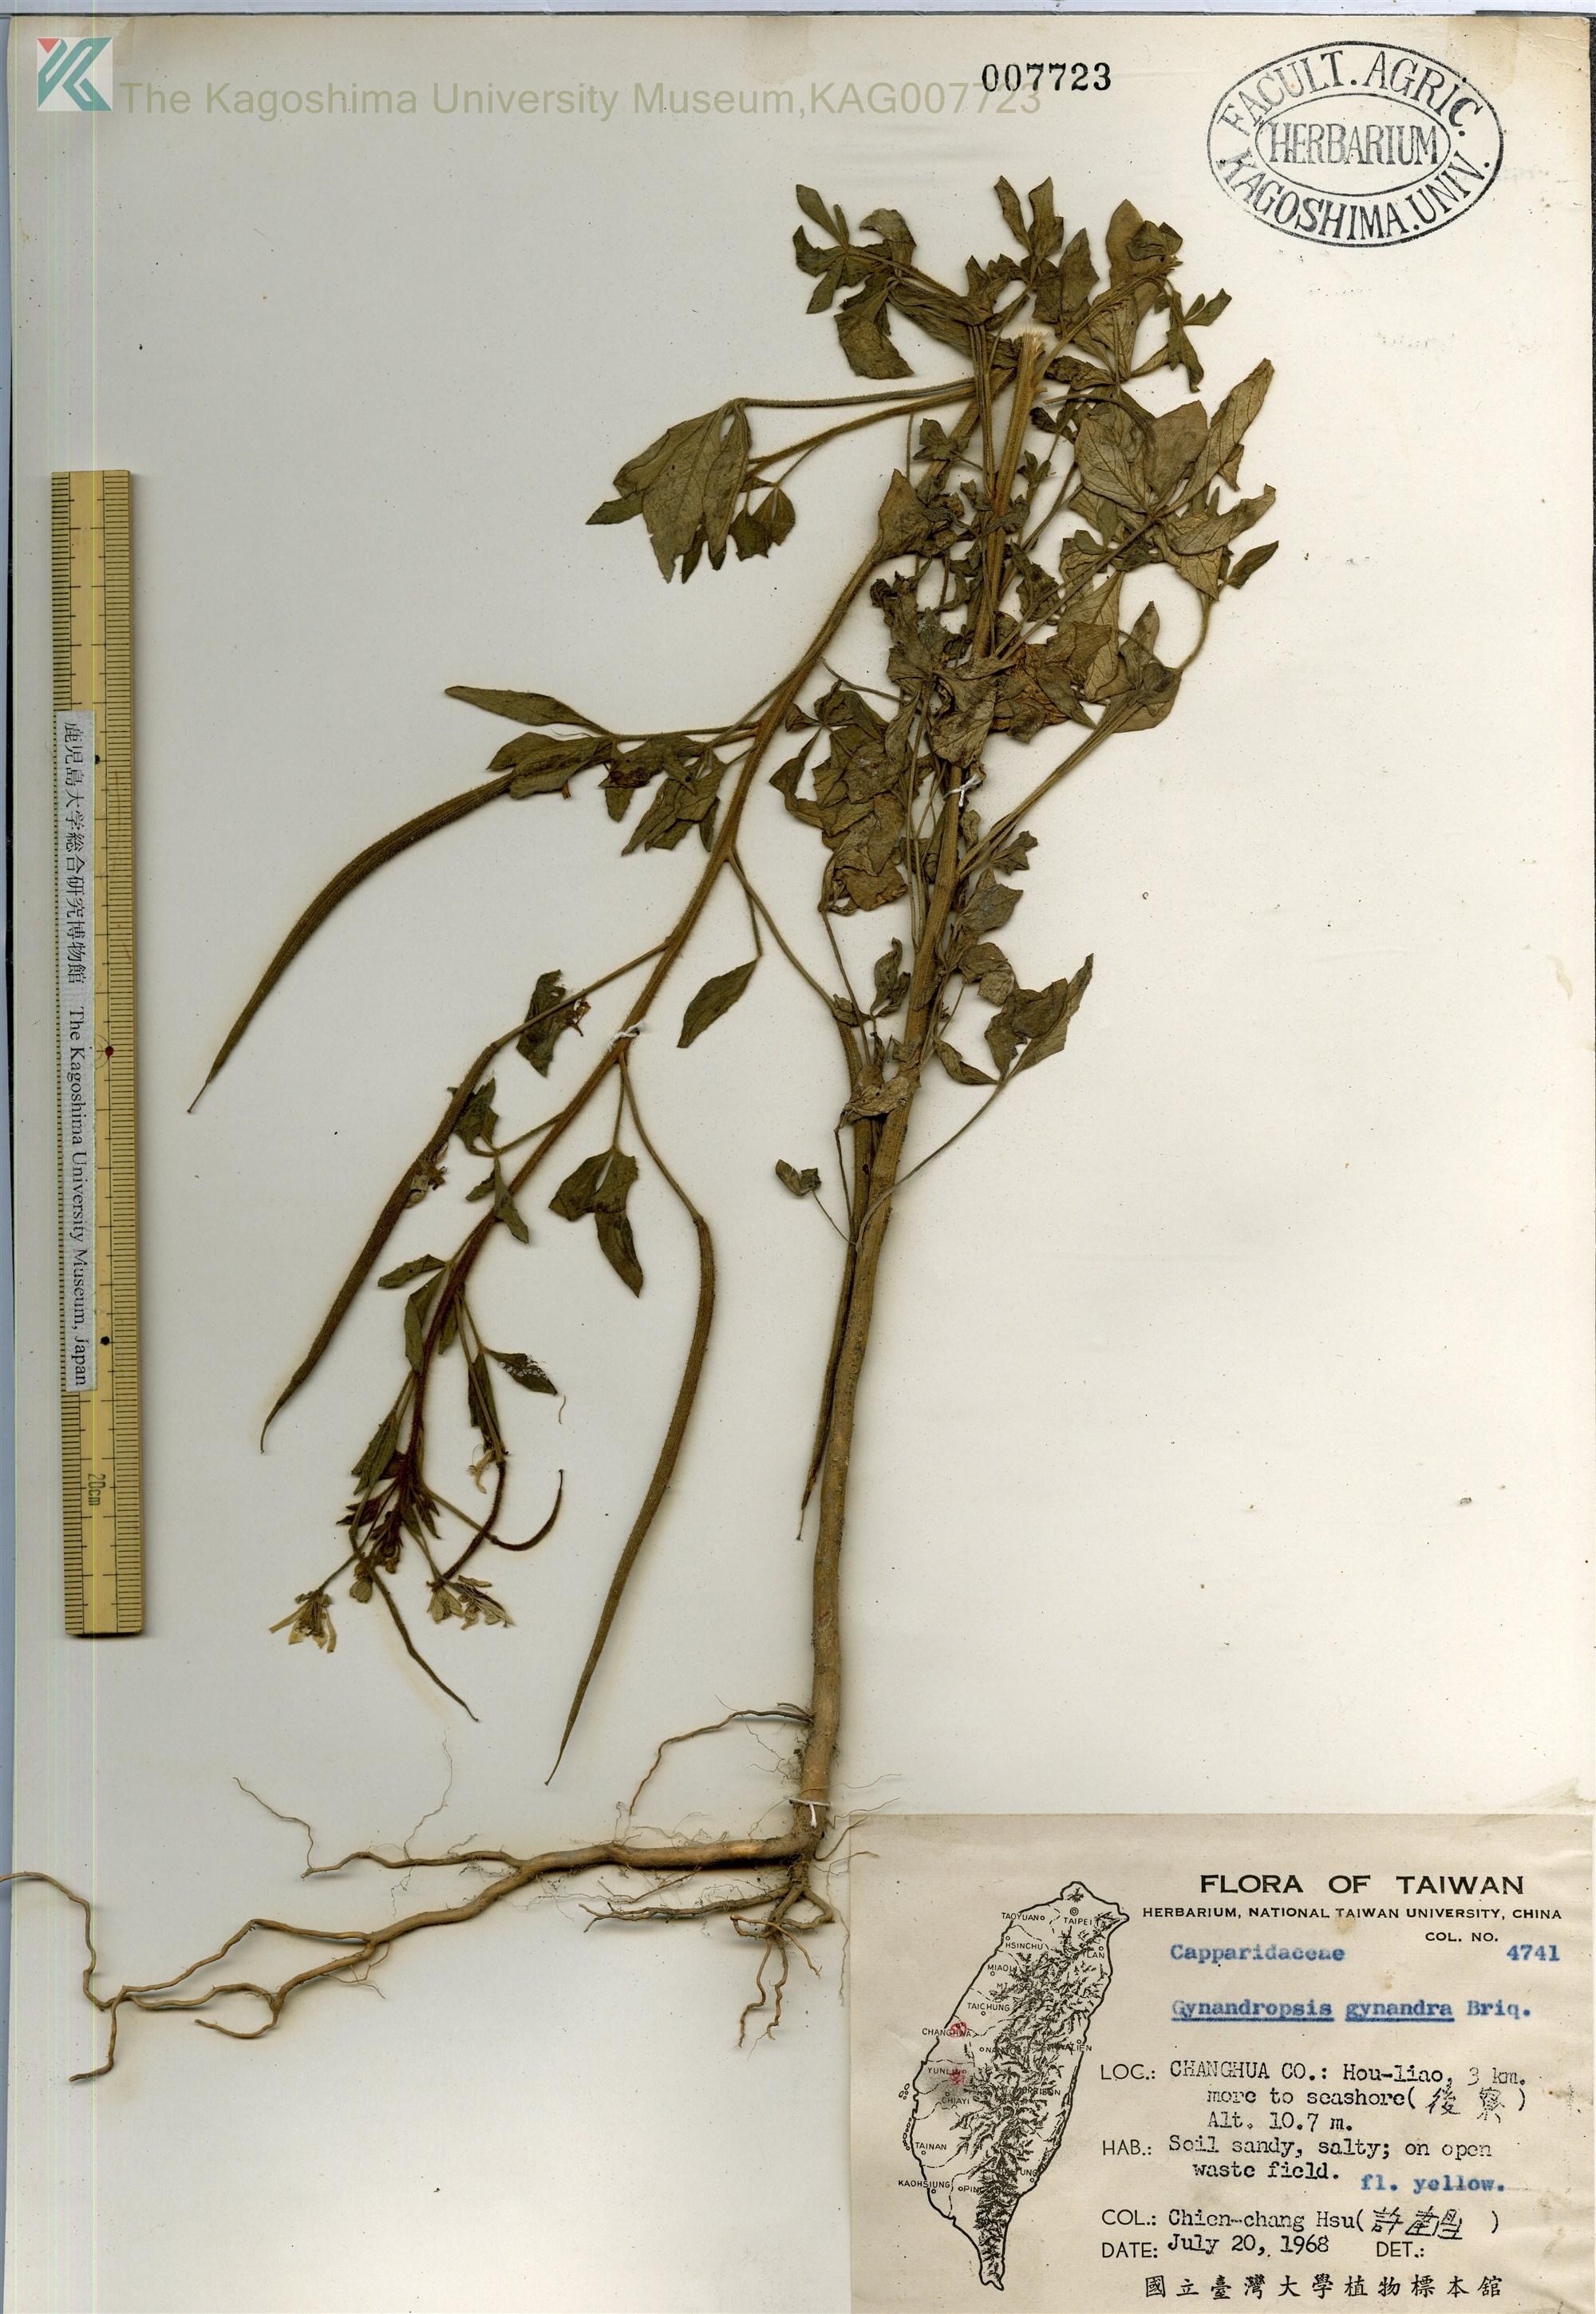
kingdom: Plantae
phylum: Tracheophyta
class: Magnoliopsida
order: Brassicales
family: Cleomaceae
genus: Gynandropsis
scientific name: Gynandropsis gynandra
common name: Spiderwisp
